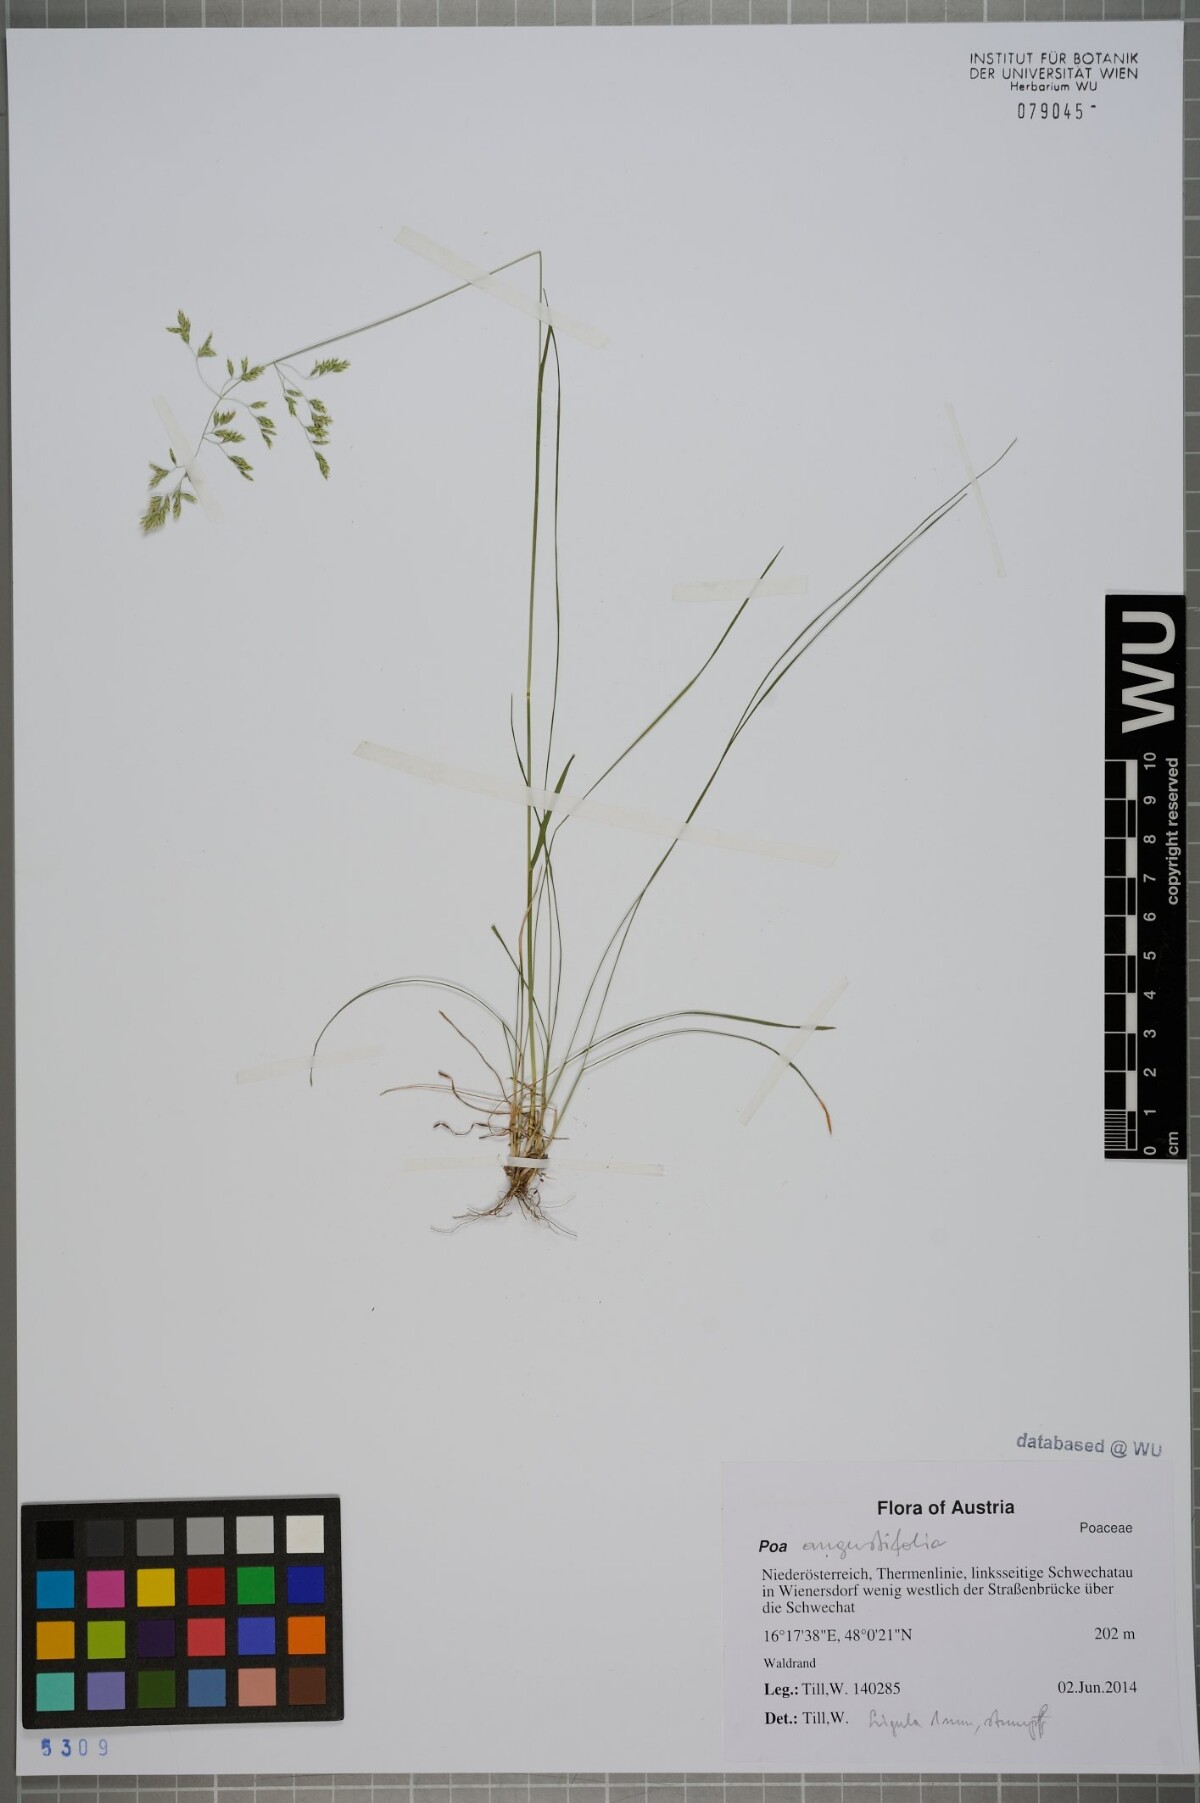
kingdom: Plantae
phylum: Tracheophyta
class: Liliopsida
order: Poales
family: Poaceae
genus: Poa
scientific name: Poa angustifolia
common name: Narrow-leaved meadow-grass
